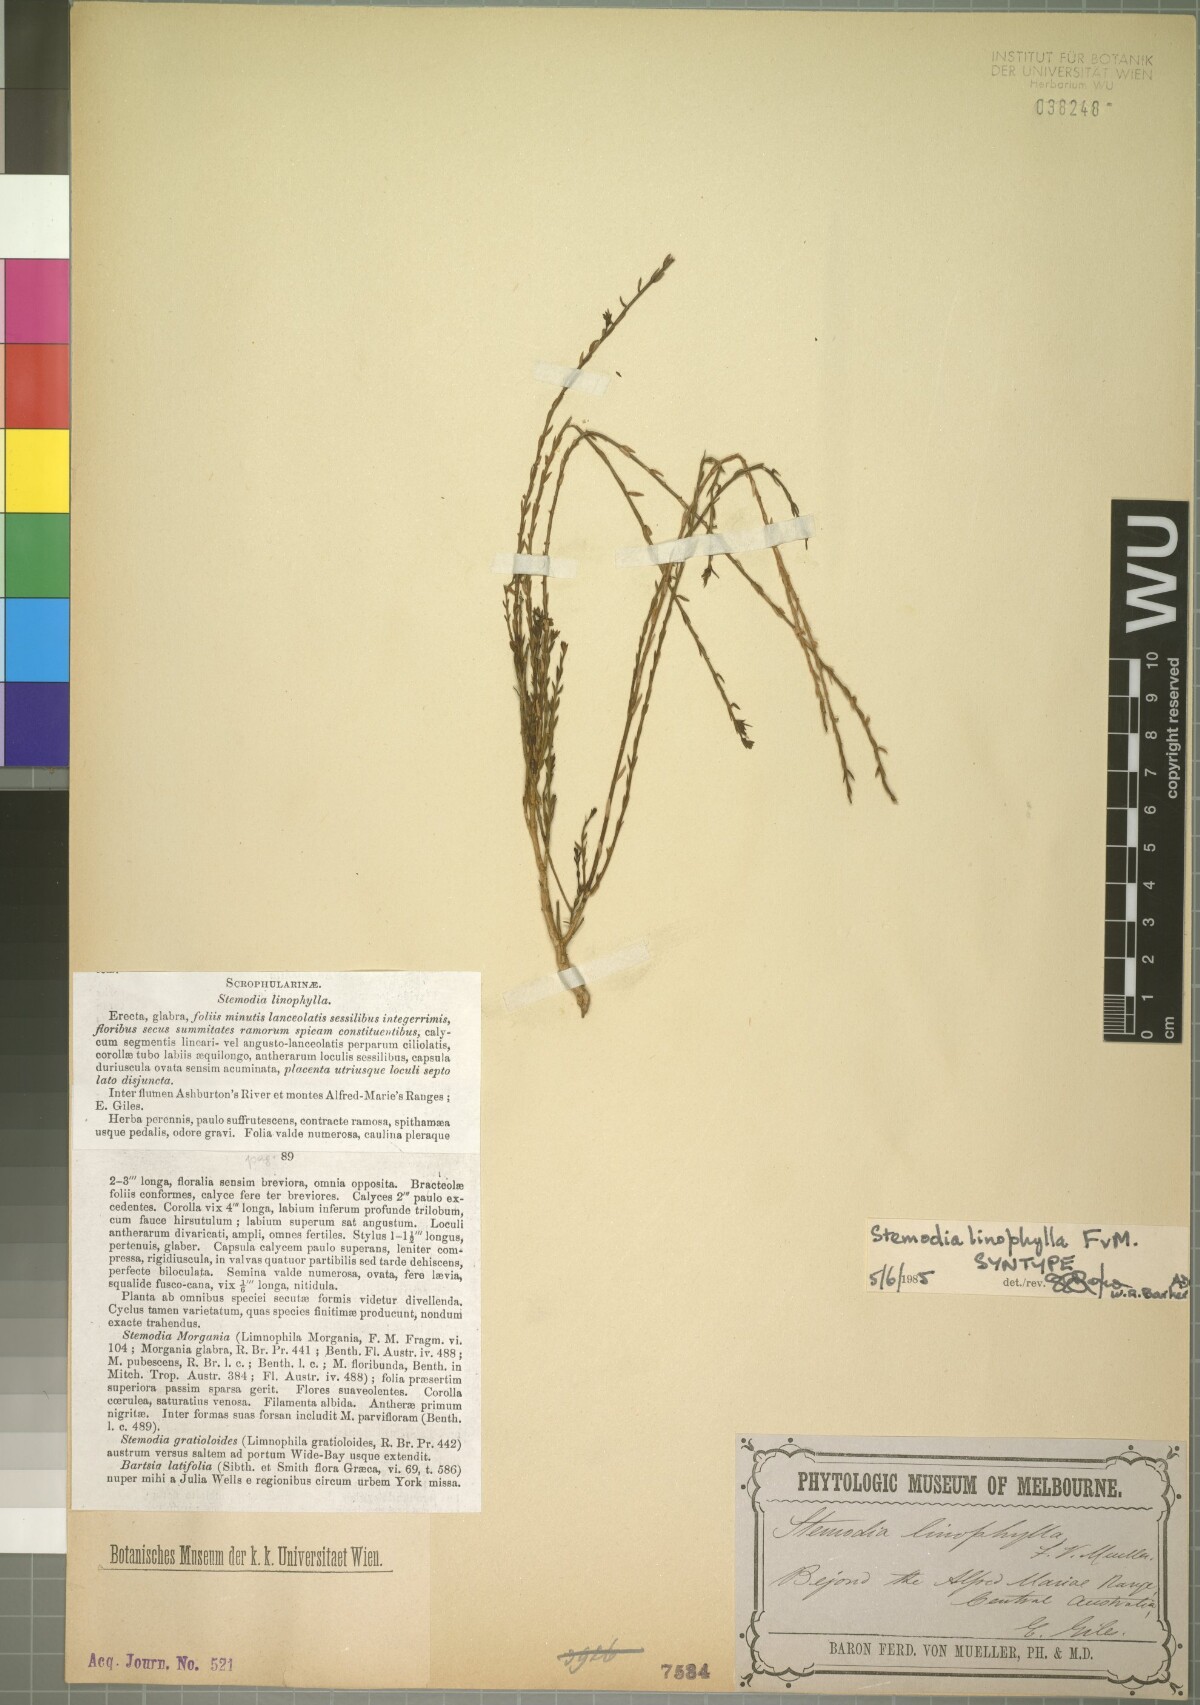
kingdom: Plantae
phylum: Tracheophyta
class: Magnoliopsida
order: Lamiales
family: Plantaginaceae
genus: Stemodia
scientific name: Stemodia linophylla
